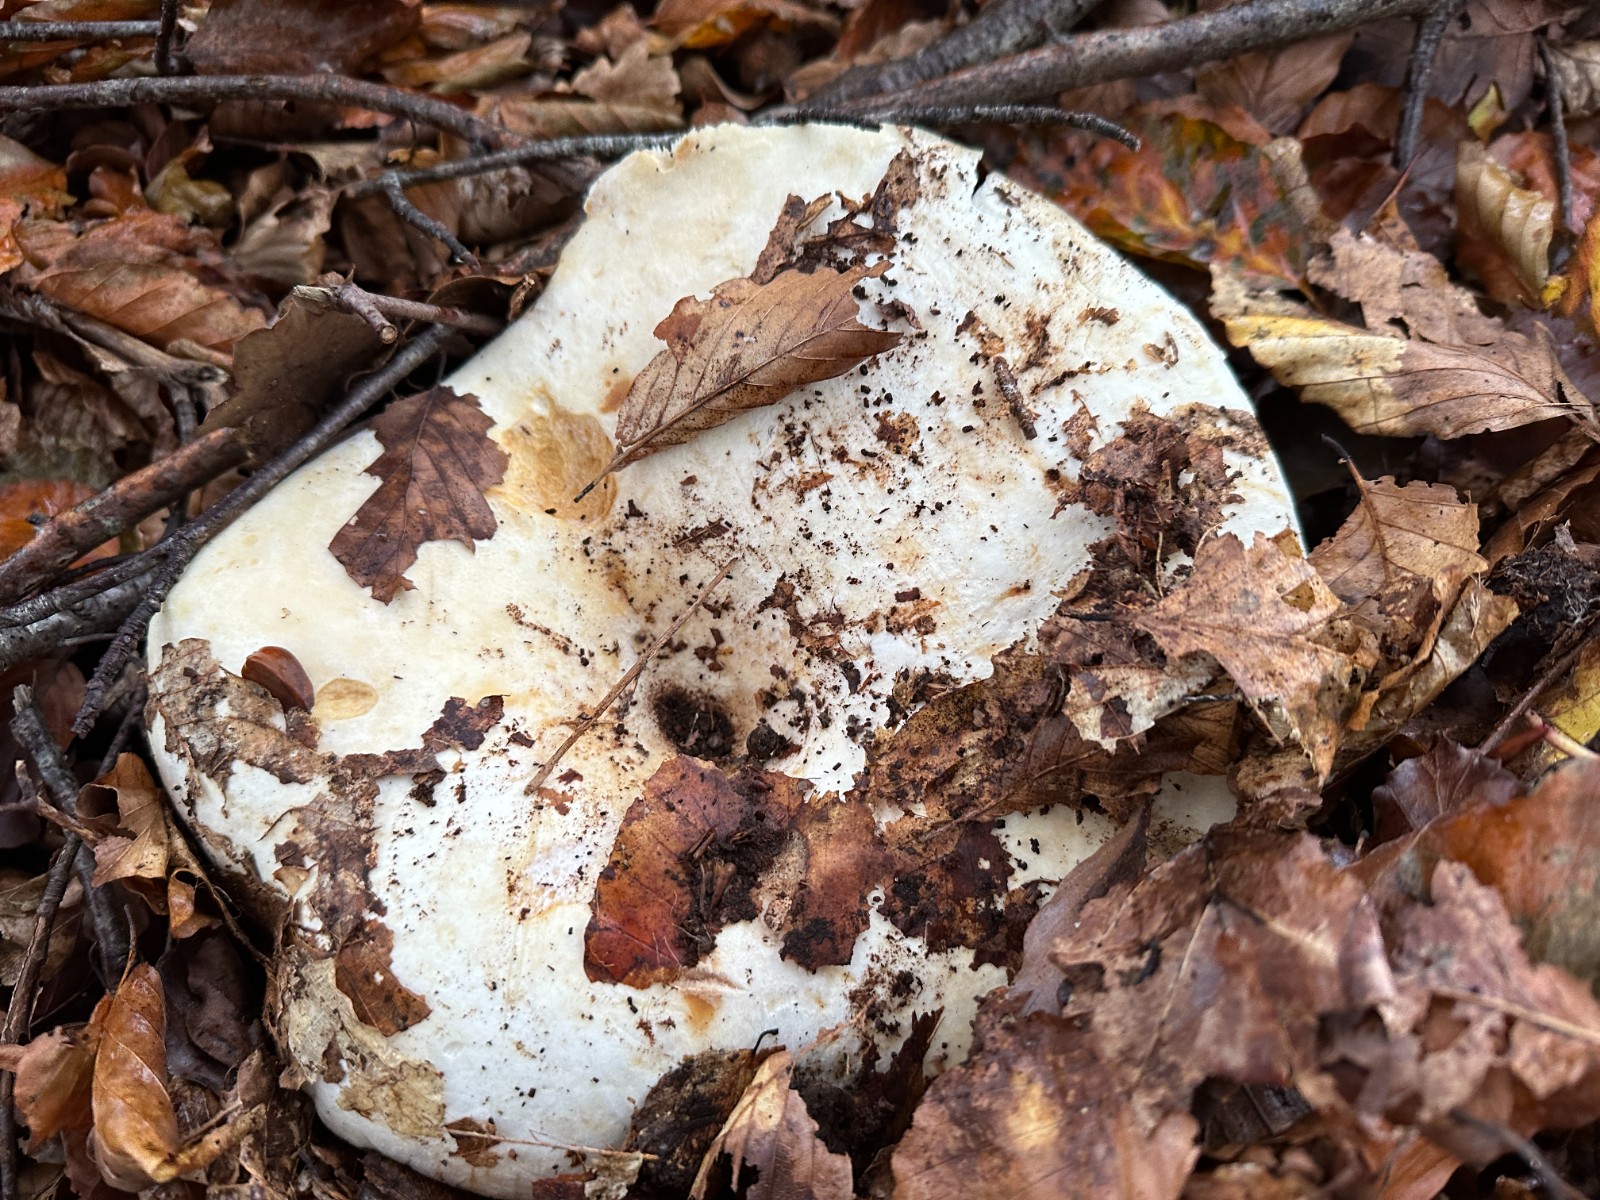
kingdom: Fungi
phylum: Basidiomycota
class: Agaricomycetes
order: Russulales
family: Russulaceae
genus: Lactifluus
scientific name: Lactifluus
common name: mælkehat
